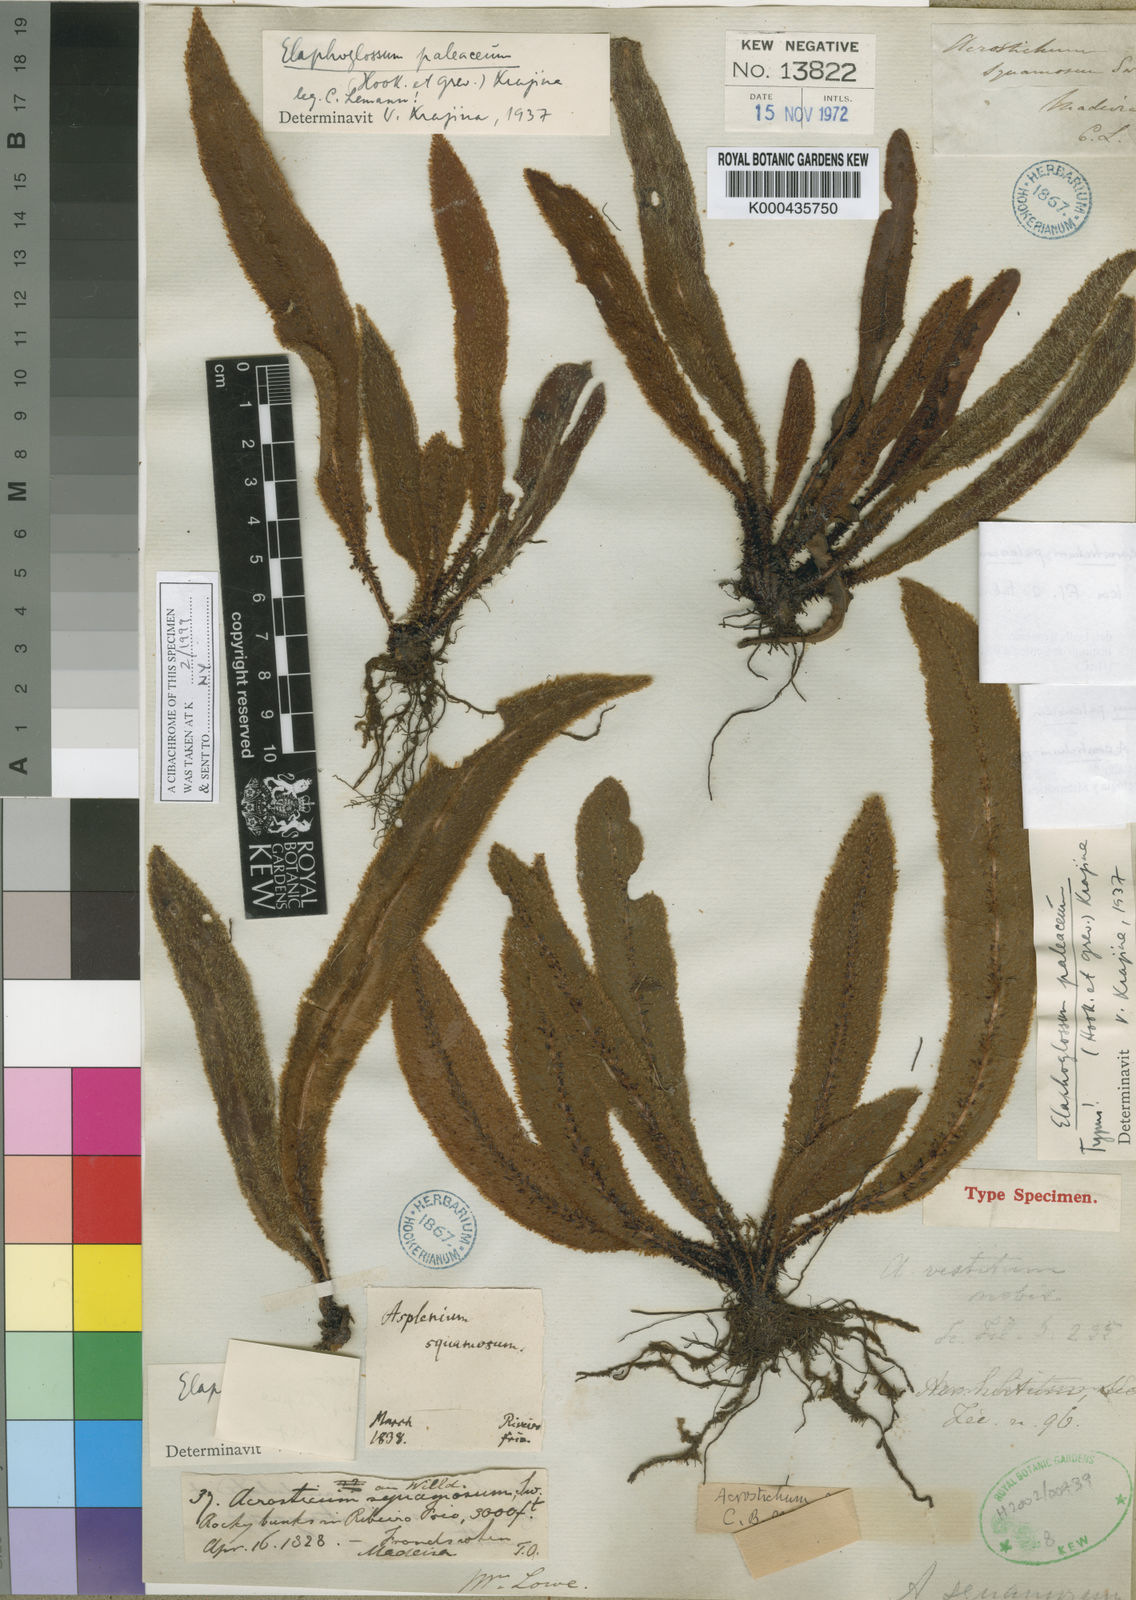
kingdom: Plantae
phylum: Tracheophyta
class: Polypodiopsida
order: Polypodiales
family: Dryopteridaceae
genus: Elaphoglossum
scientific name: Elaphoglossum paleaceum
